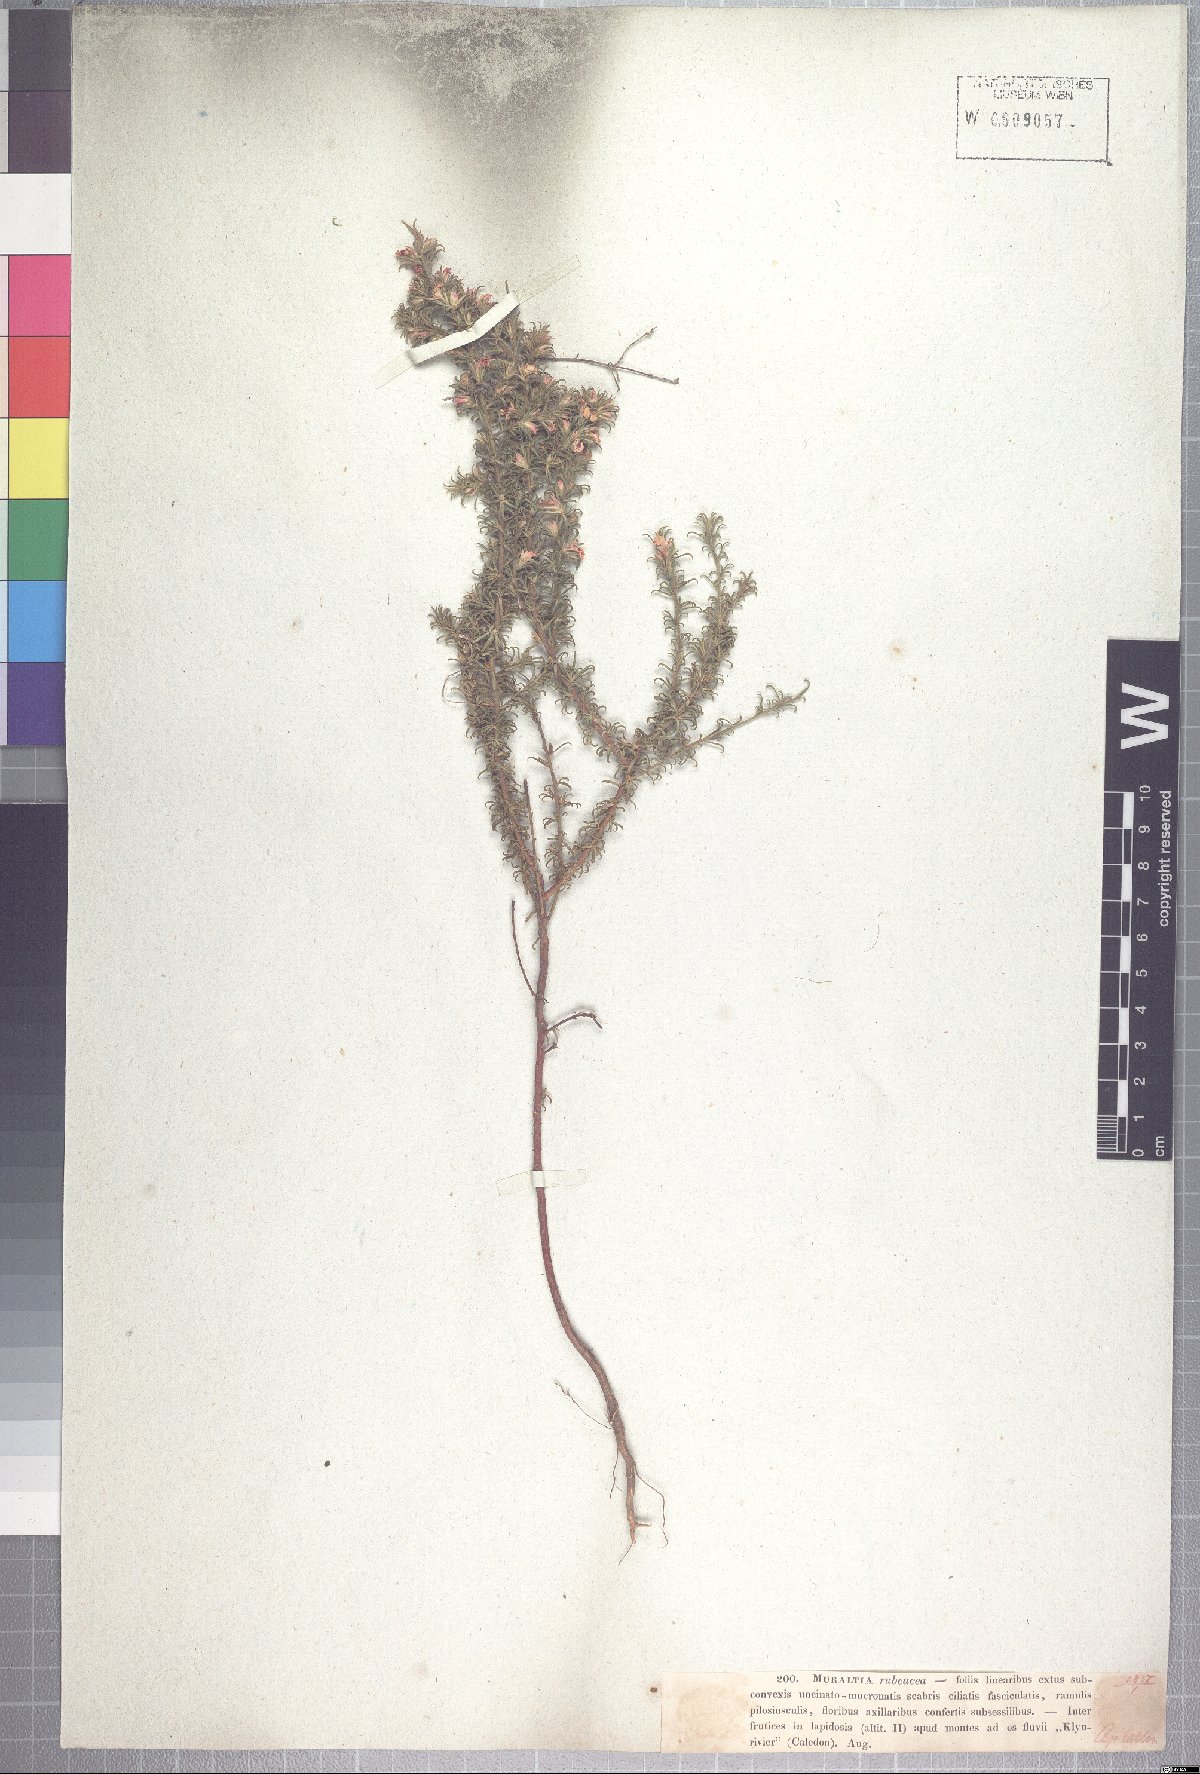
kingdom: Plantae
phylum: Tracheophyta
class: Magnoliopsida
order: Fabales
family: Polygalaceae
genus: Muraltia
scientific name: Muraltia rubeacea
